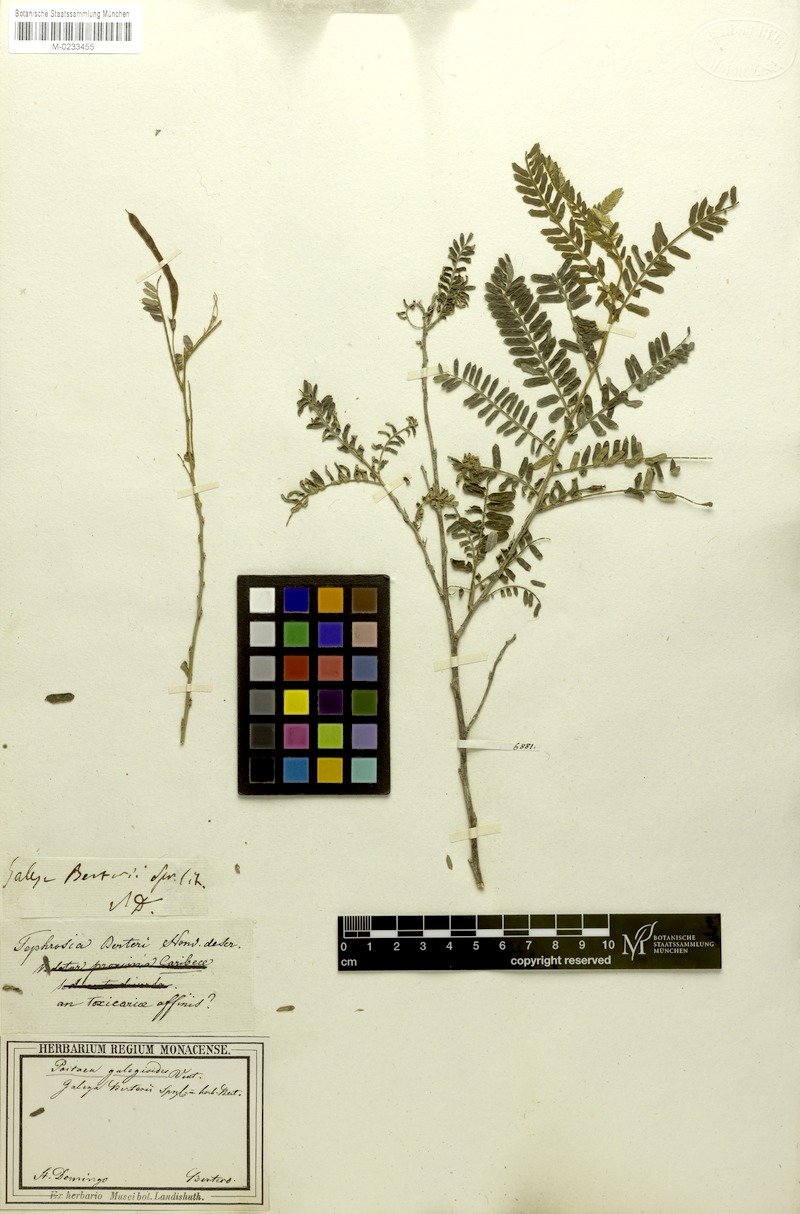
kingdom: Plantae
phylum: Tracheophyta
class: Magnoliopsida
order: Fabales
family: Fabaceae
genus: Poitea
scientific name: Poitea galegoides
